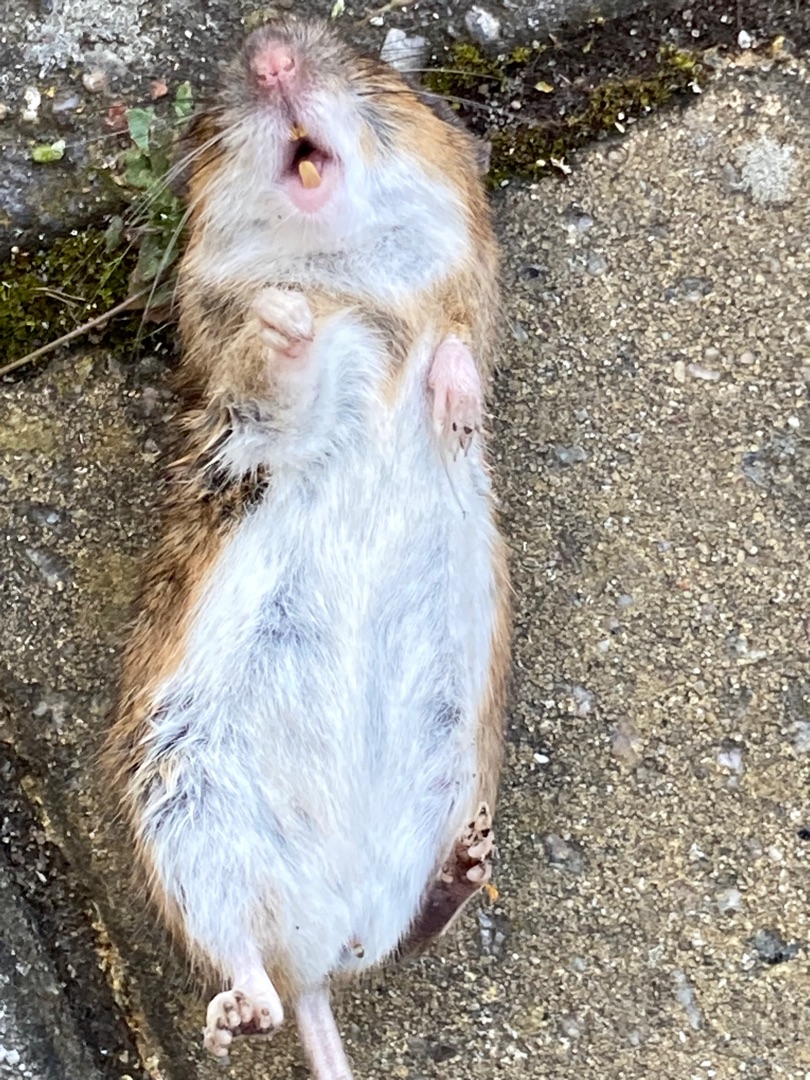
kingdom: Animalia
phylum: Chordata
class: Mammalia
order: Rodentia
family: Muridae
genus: Apodemus
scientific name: Apodemus flavicollis
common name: Halsbåndmus
